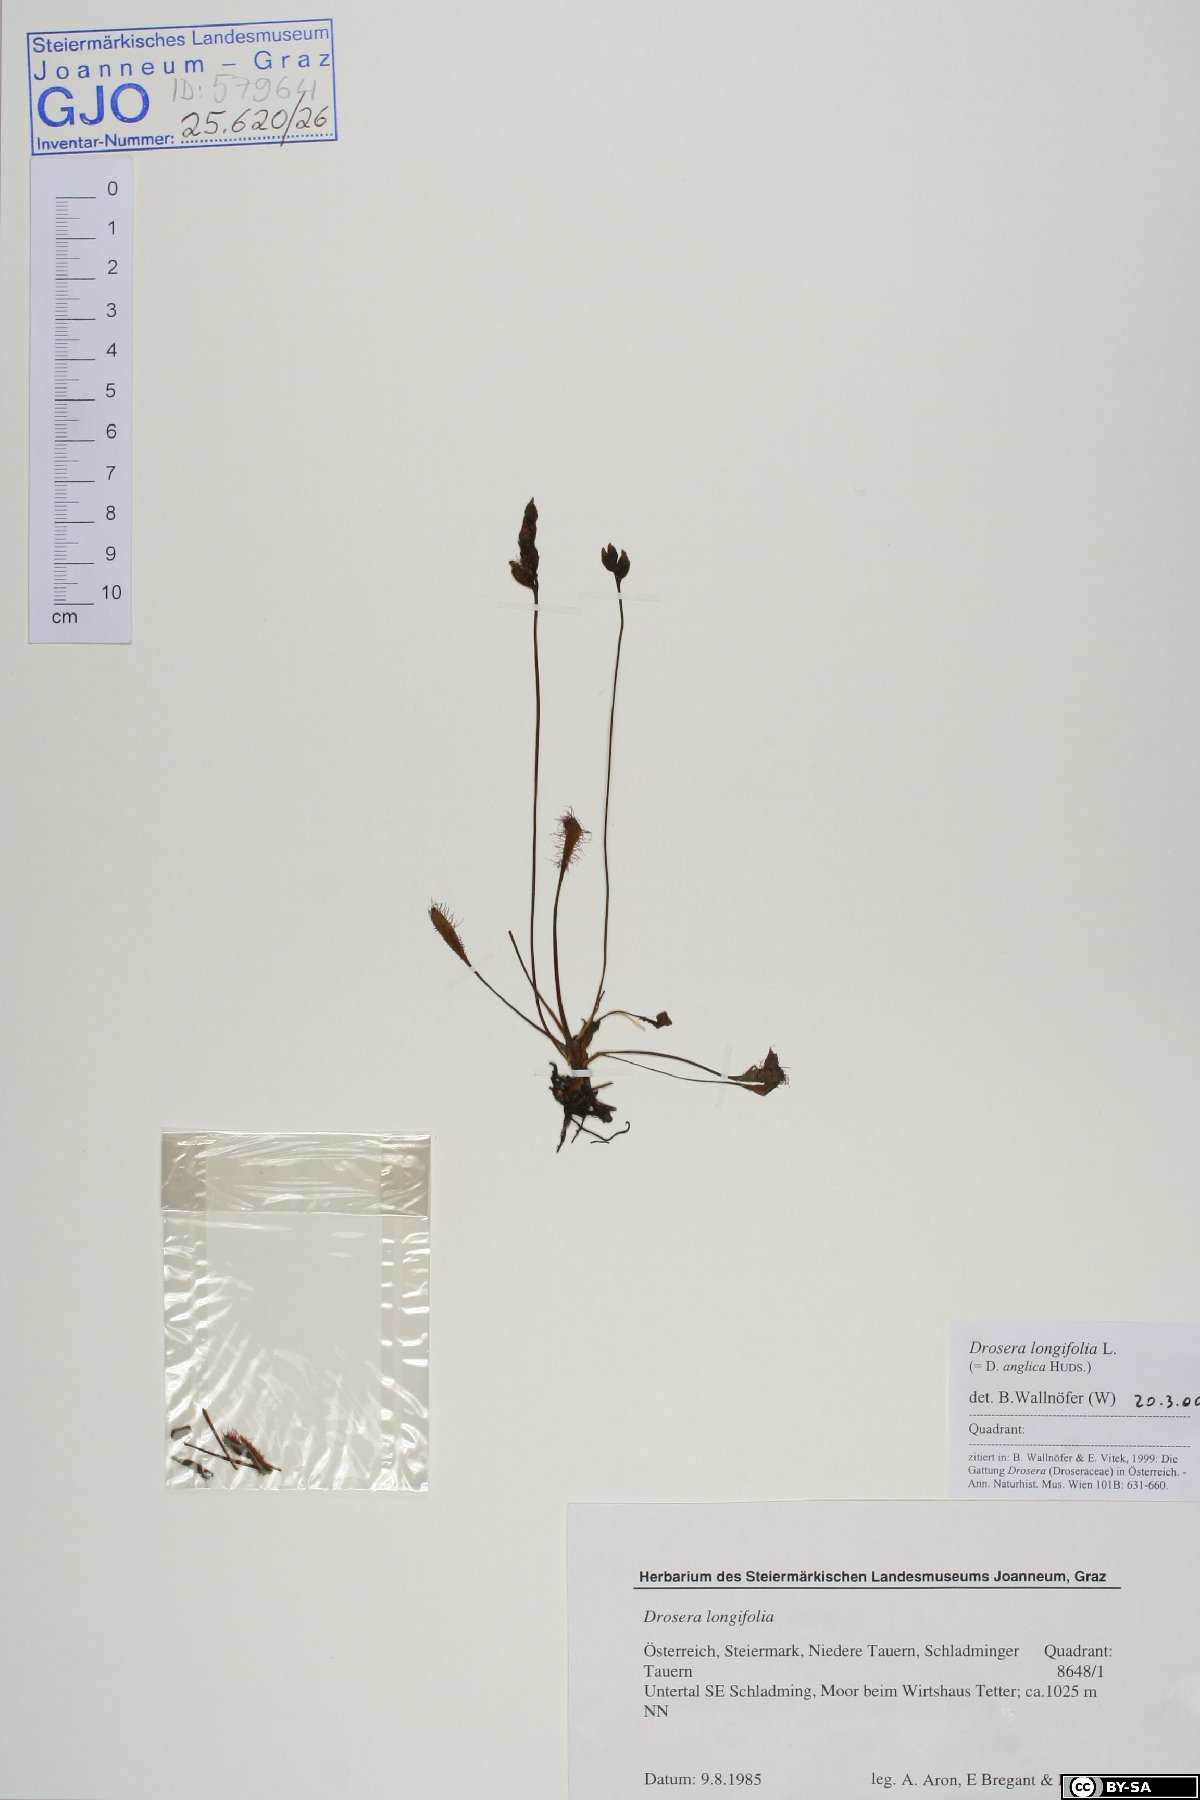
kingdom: Plantae
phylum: Tracheophyta
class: Magnoliopsida
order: Caryophyllales
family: Droseraceae
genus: Drosera
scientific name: Drosera anglica
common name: Great sundew
